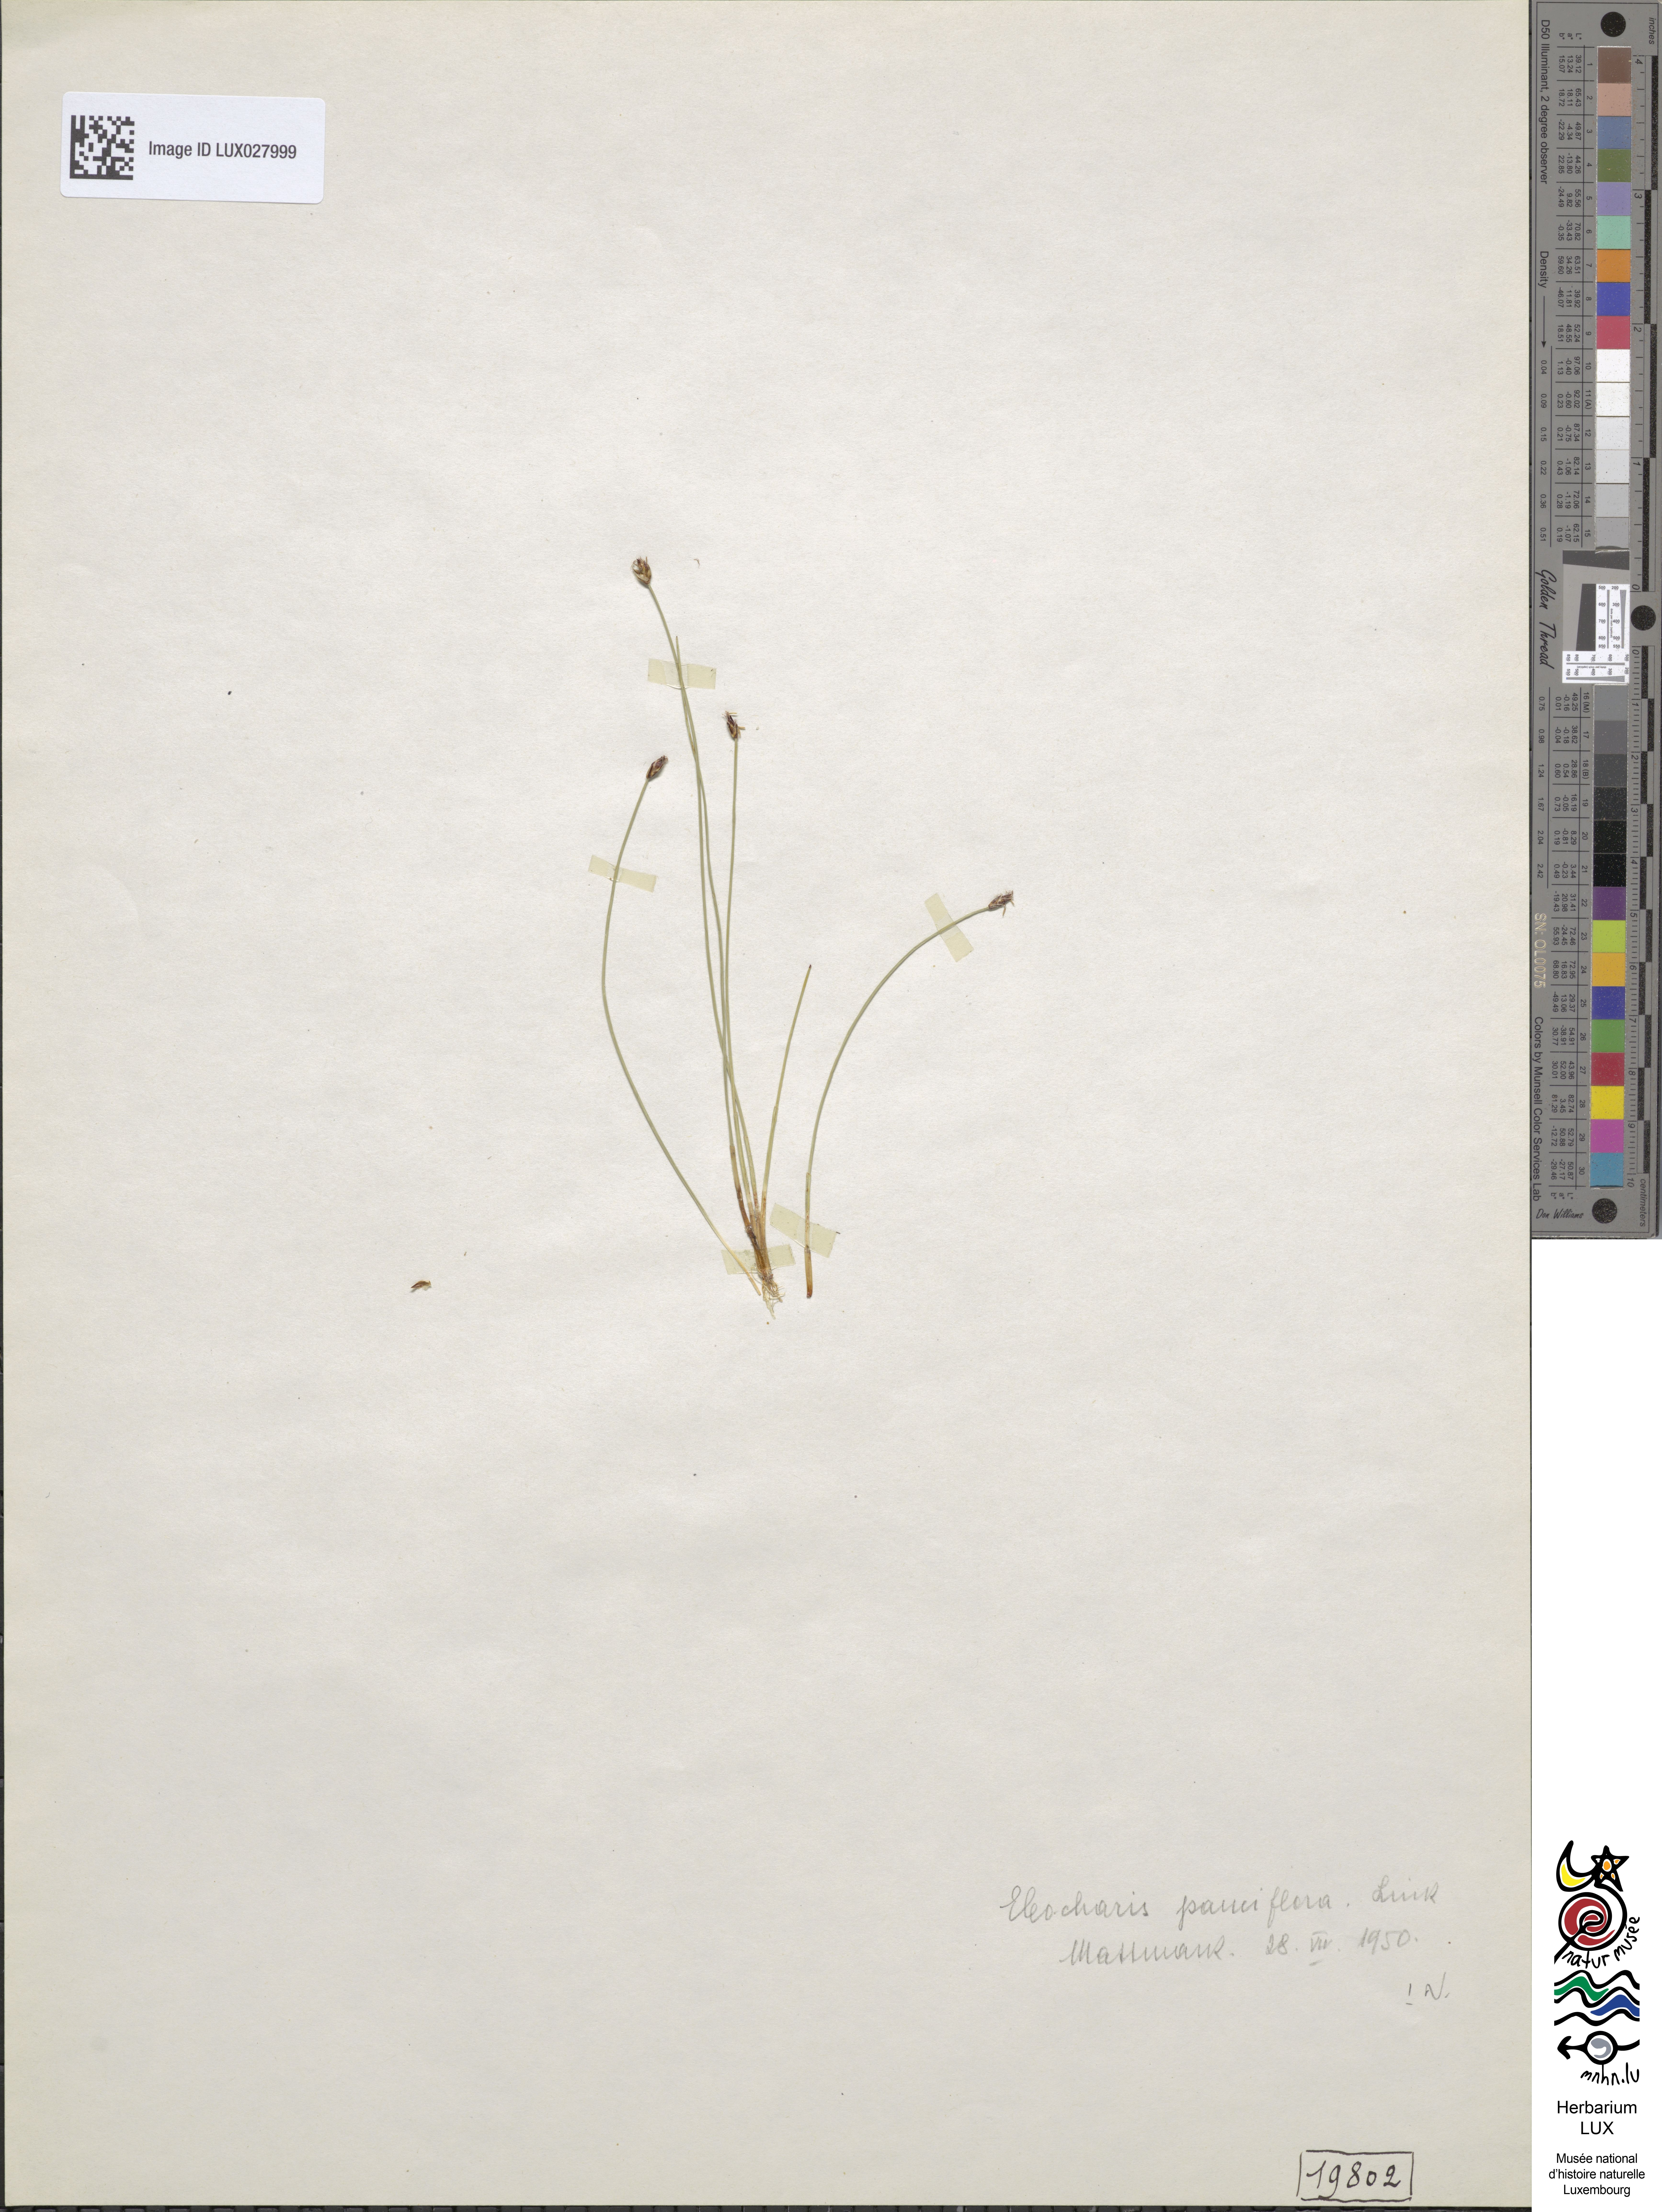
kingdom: Plantae
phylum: Tracheophyta
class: Liliopsida
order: Poales
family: Cyperaceae
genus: Eleocharis
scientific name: Eleocharis quinqueflora
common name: Few-flowered spike-rush
